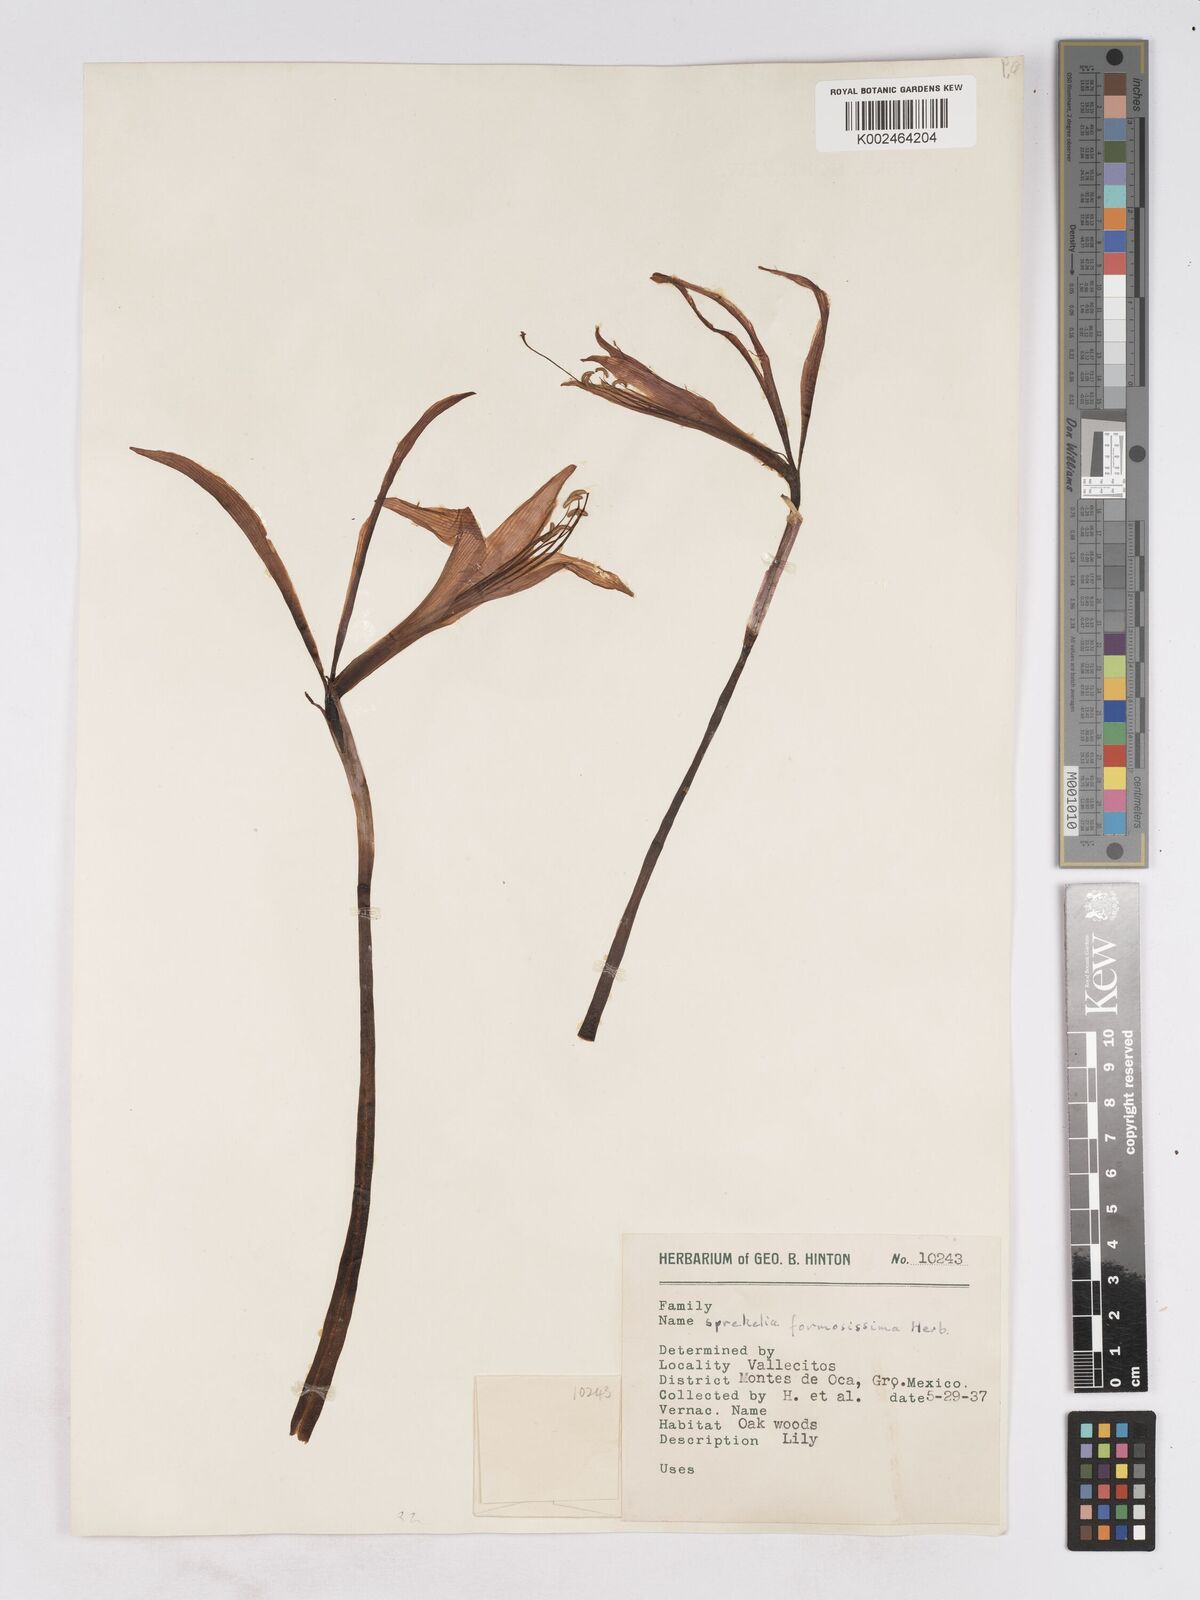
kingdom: Plantae
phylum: Tracheophyta
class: Liliopsida
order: Asparagales
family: Amaryllidaceae
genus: Sprekelia
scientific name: Sprekelia formosissima
